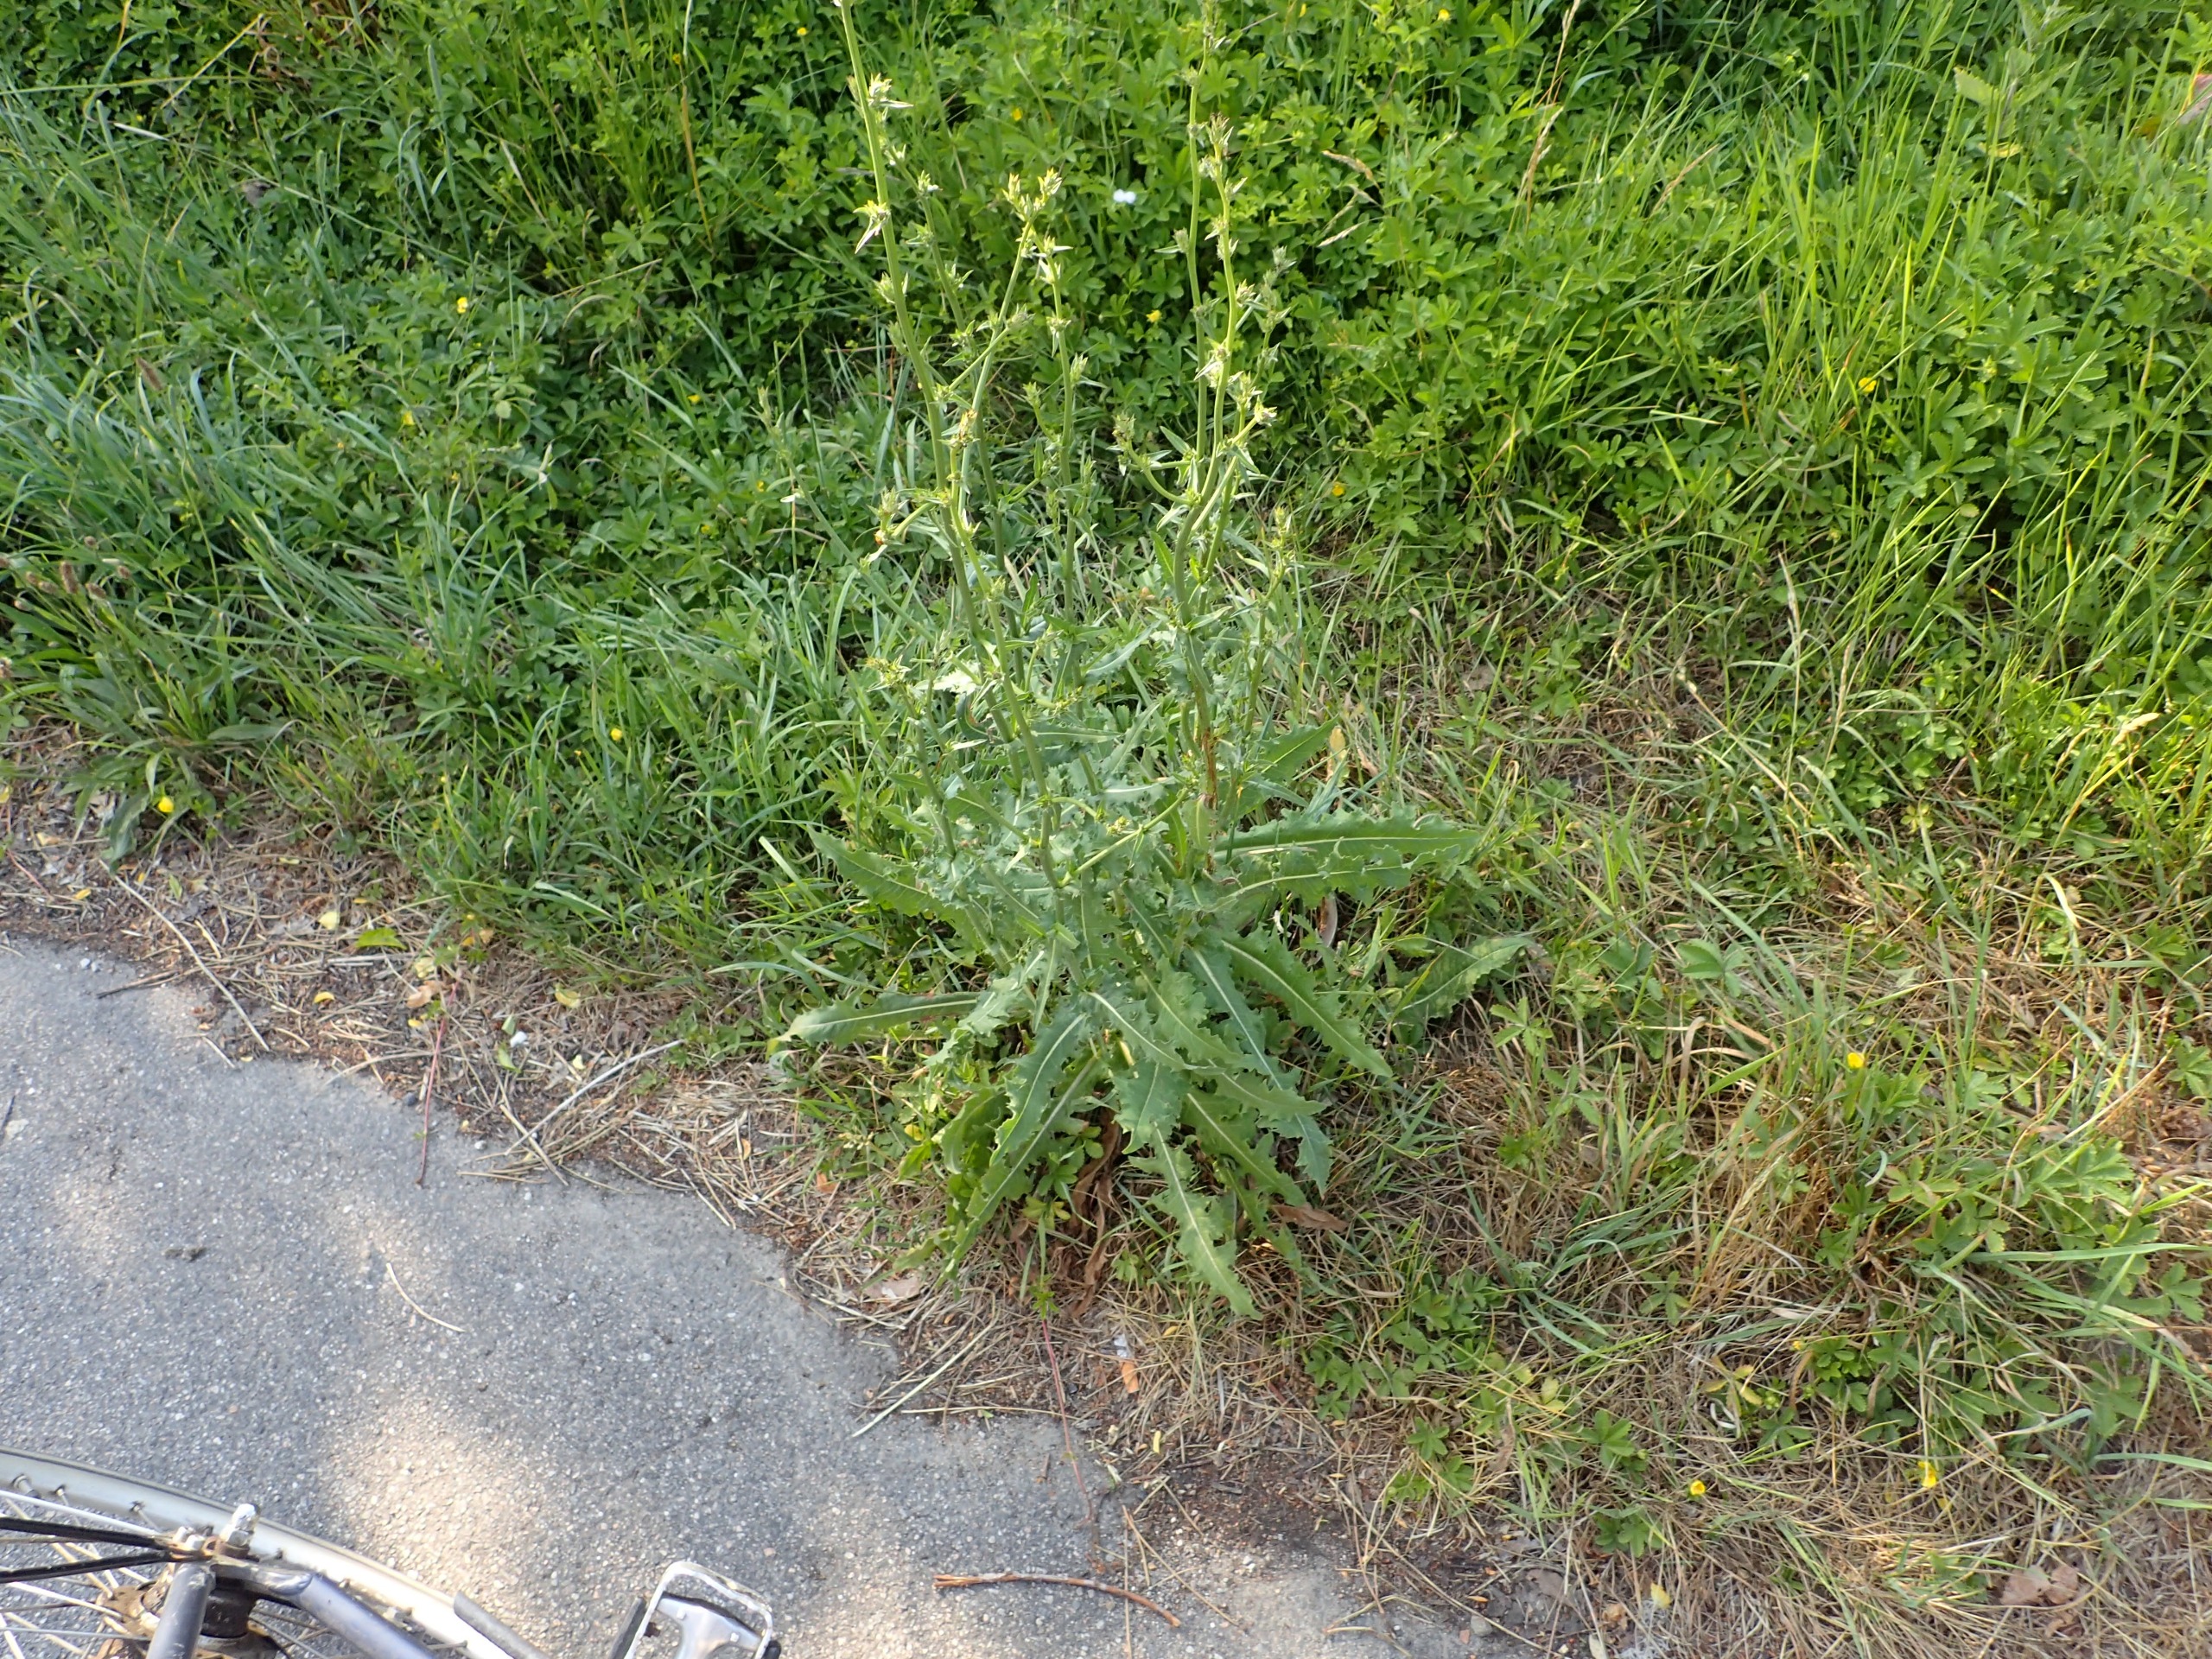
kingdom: Plantae
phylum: Tracheophyta
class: Magnoliopsida
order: Asterales
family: Asteraceae
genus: Cichorium
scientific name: Cichorium intybus
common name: Cikorie
